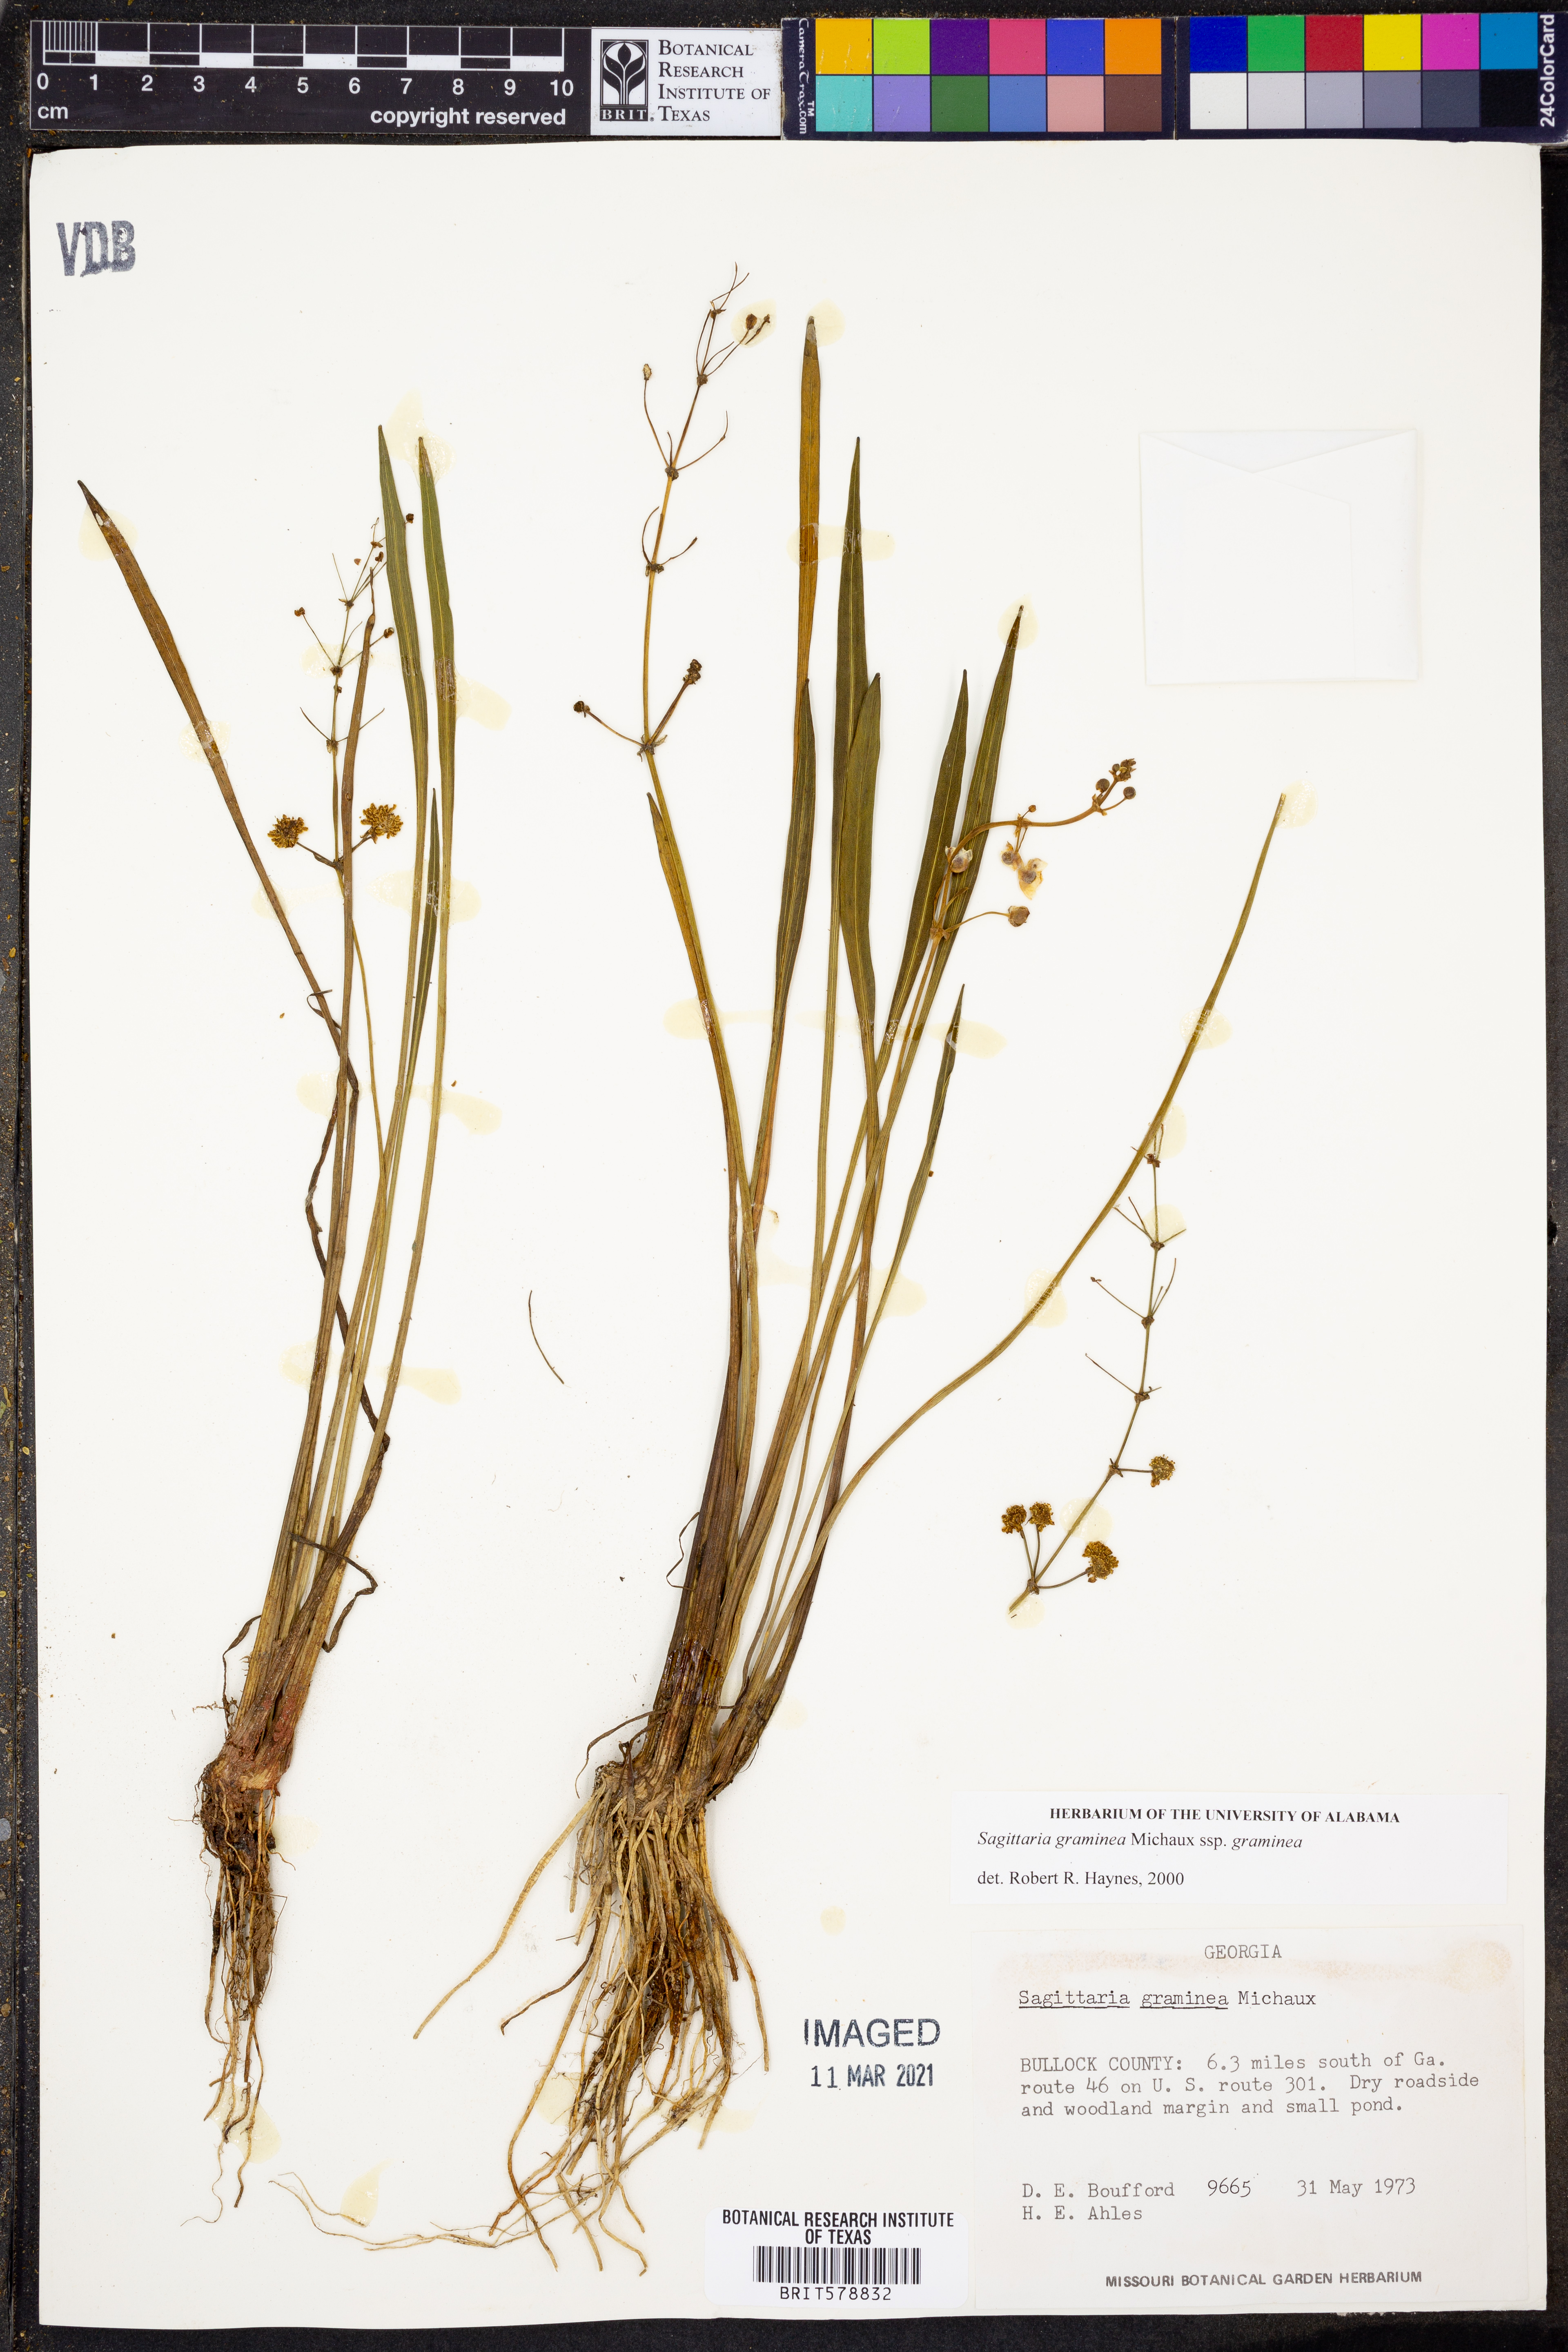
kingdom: Plantae
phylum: Tracheophyta
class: Liliopsida
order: Alismatales
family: Alismataceae
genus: Sagittaria
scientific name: Sagittaria graminea
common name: Grass-leaved arrowhead
